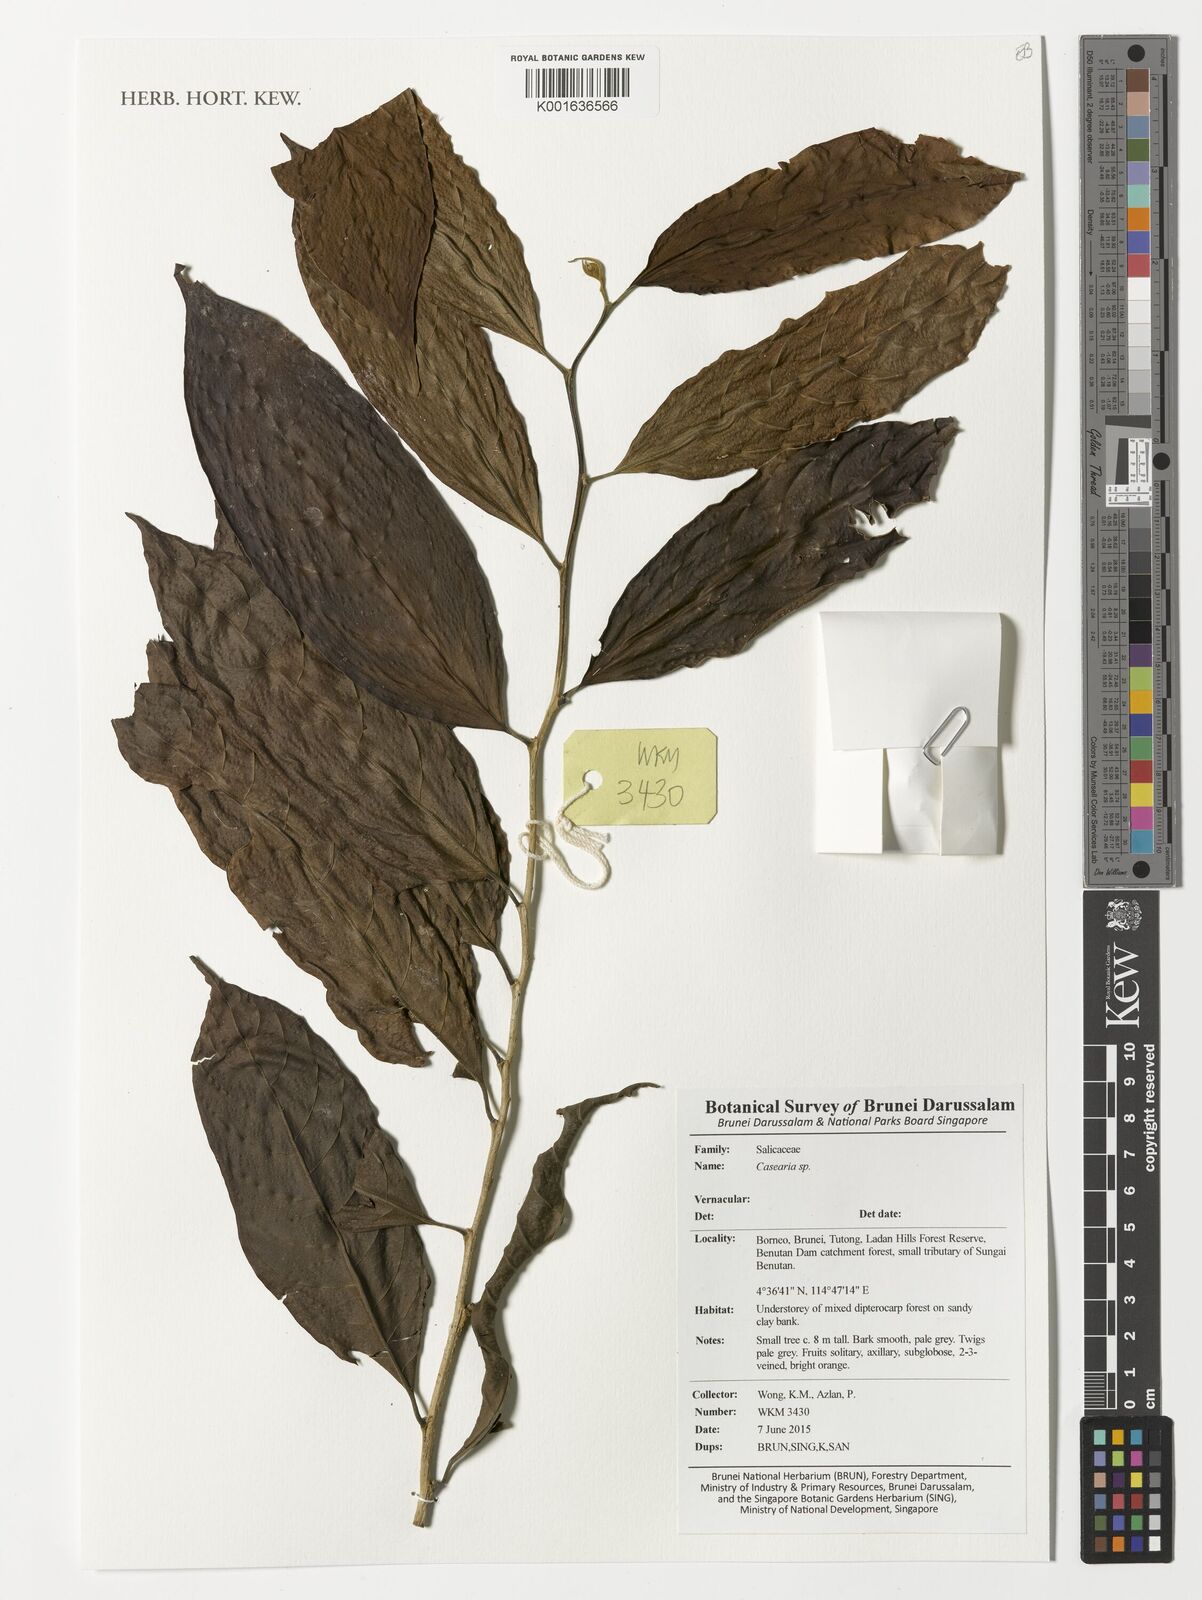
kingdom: Plantae
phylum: Tracheophyta
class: Magnoliopsida
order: Malpighiales
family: Salicaceae
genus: Casearia
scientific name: Casearia
